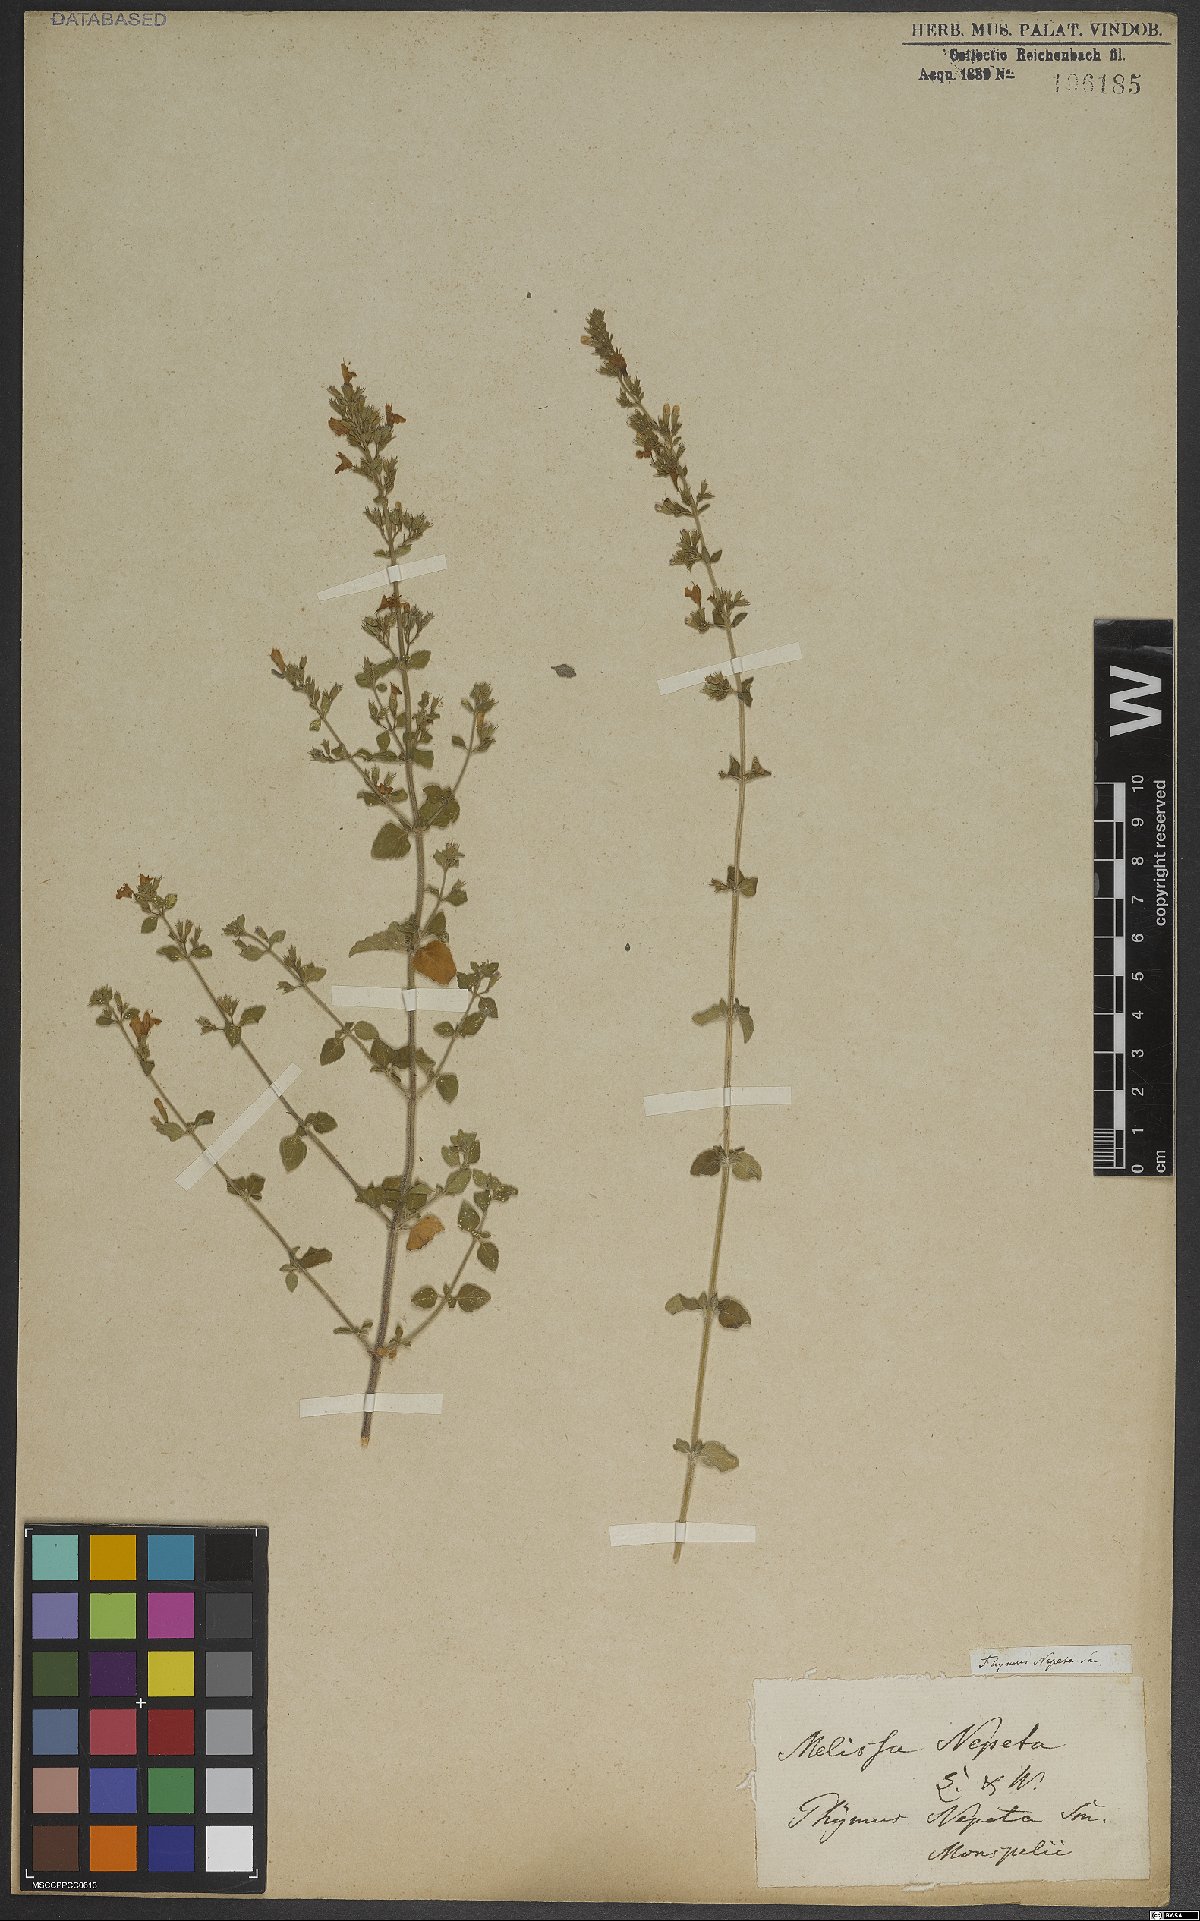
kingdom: Plantae
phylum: Tracheophyta
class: Magnoliopsida
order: Lamiales
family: Lamiaceae
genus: Clinopodium
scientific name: Clinopodium nepeta
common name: Lesser calamint
